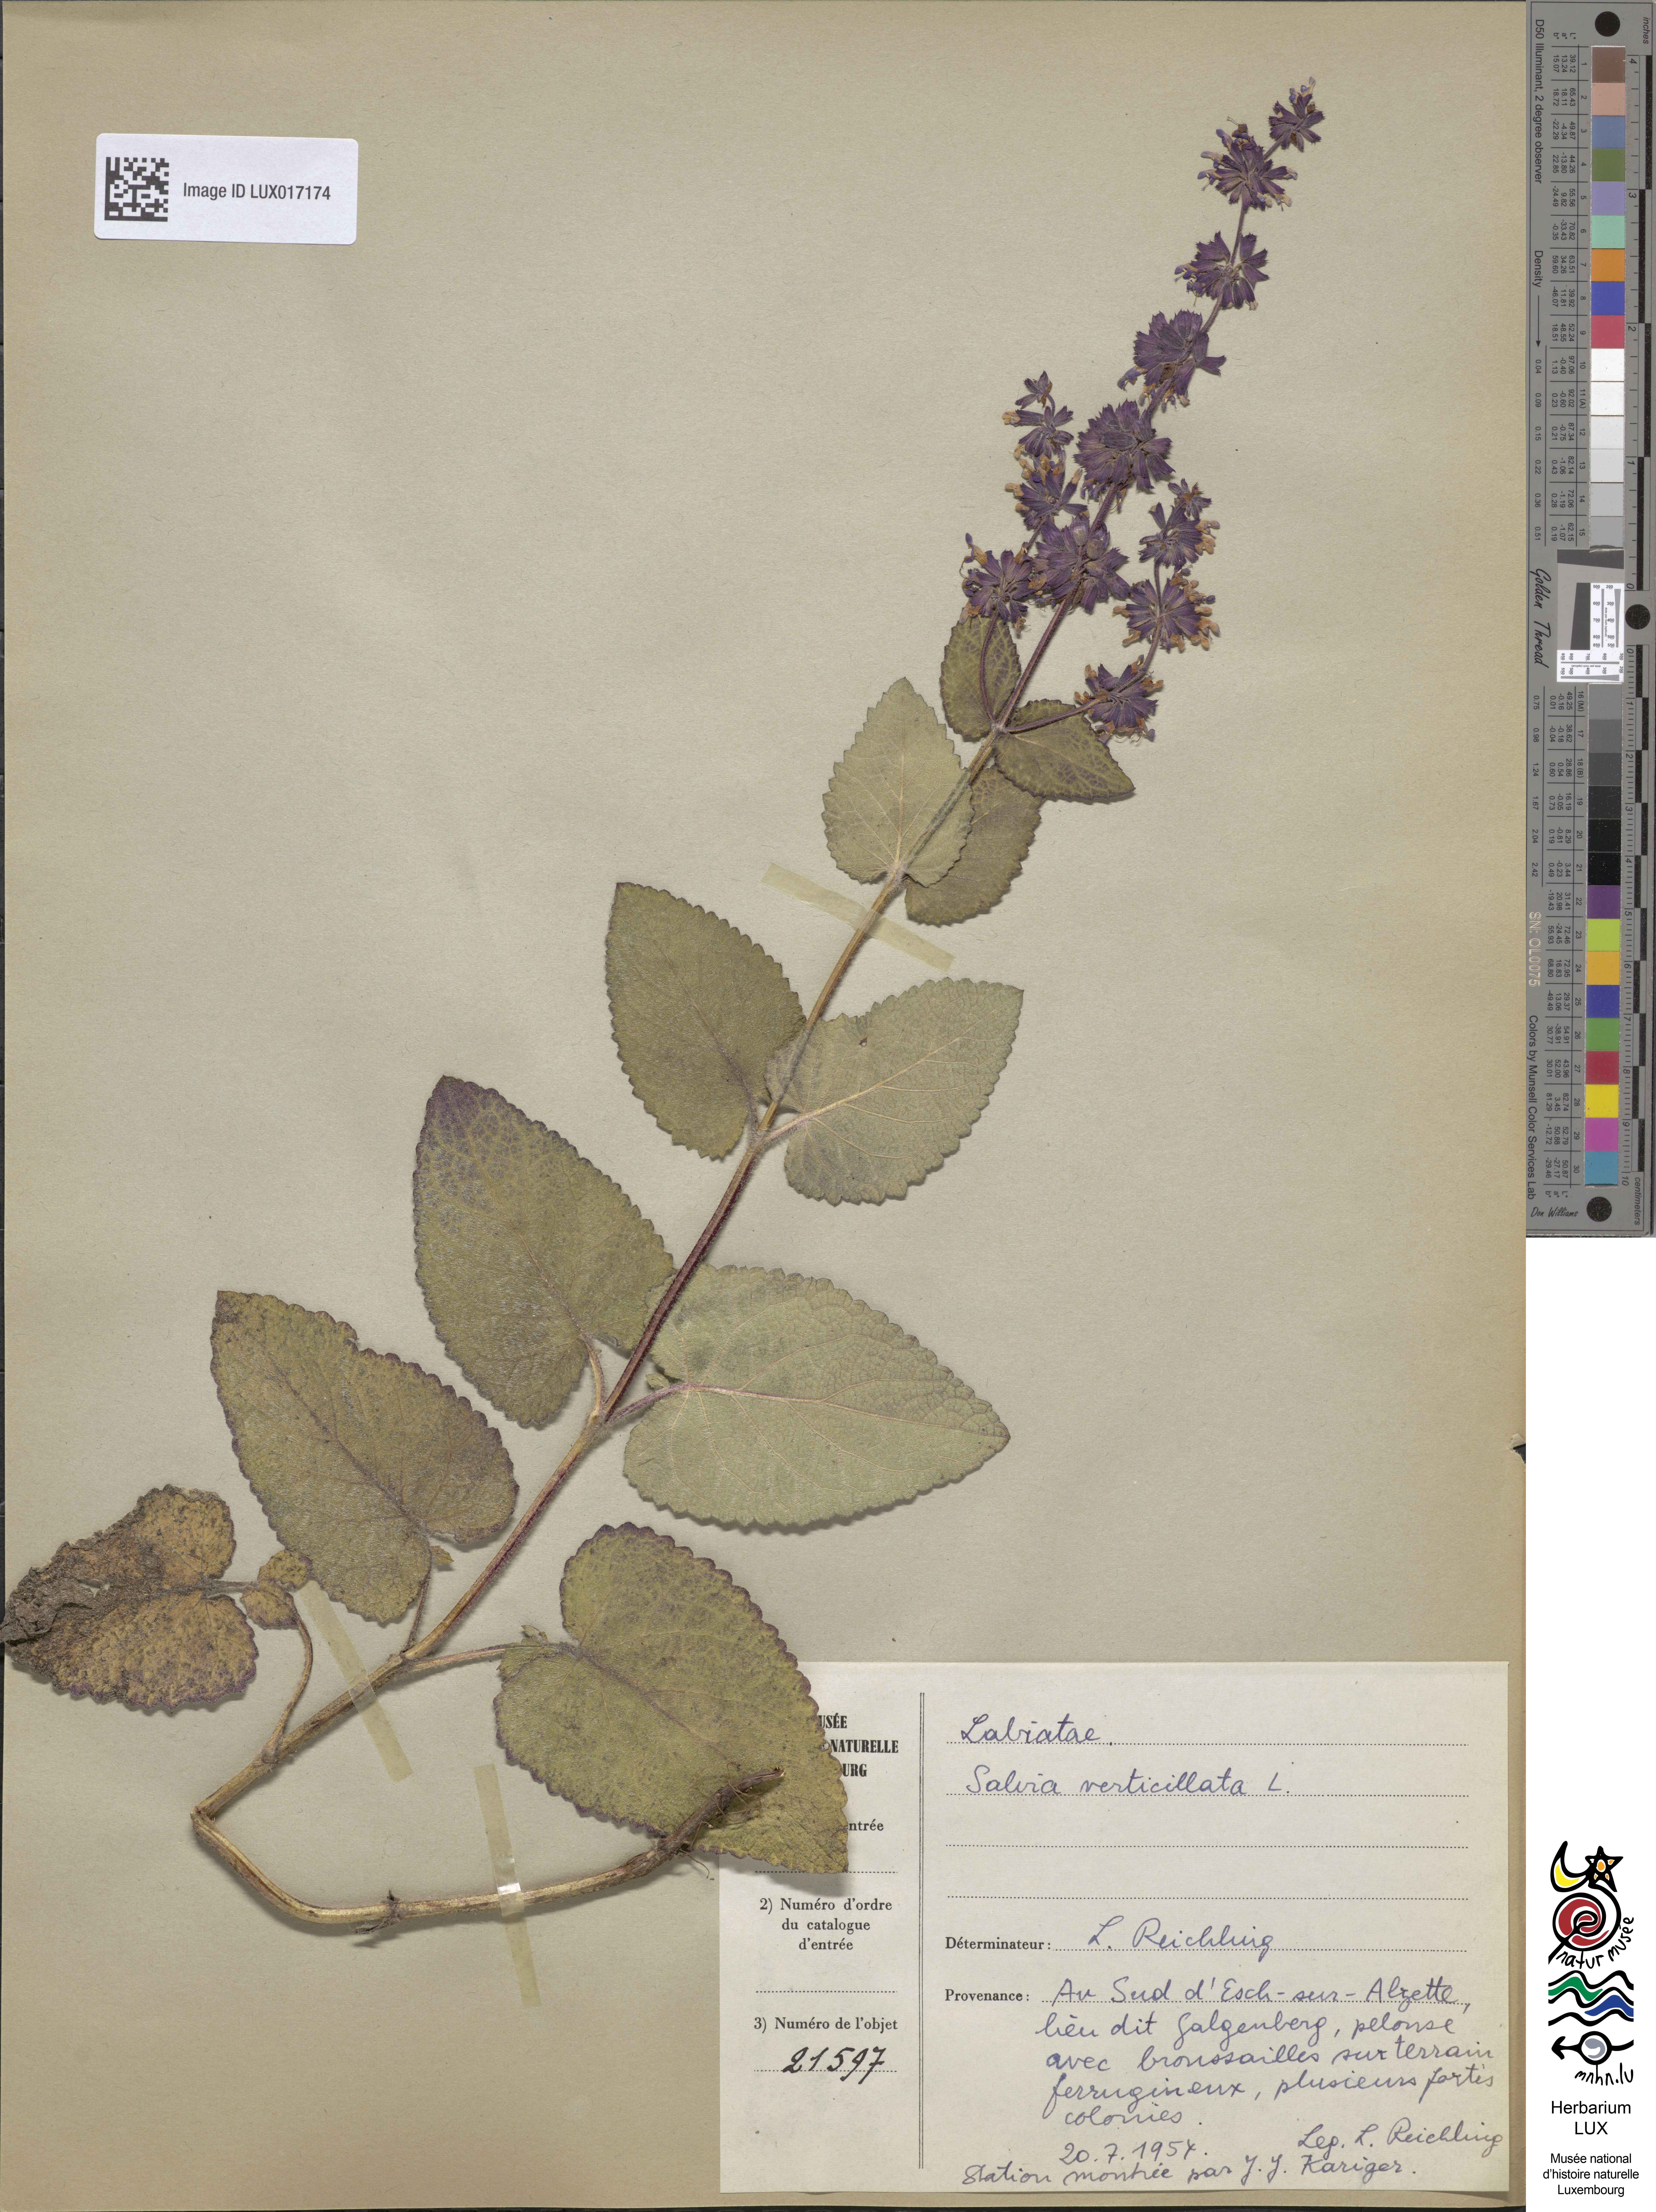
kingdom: Plantae
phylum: Tracheophyta
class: Magnoliopsida
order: Lamiales
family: Lamiaceae
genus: Salvia
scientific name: Salvia verticillata
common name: Whorled clary
